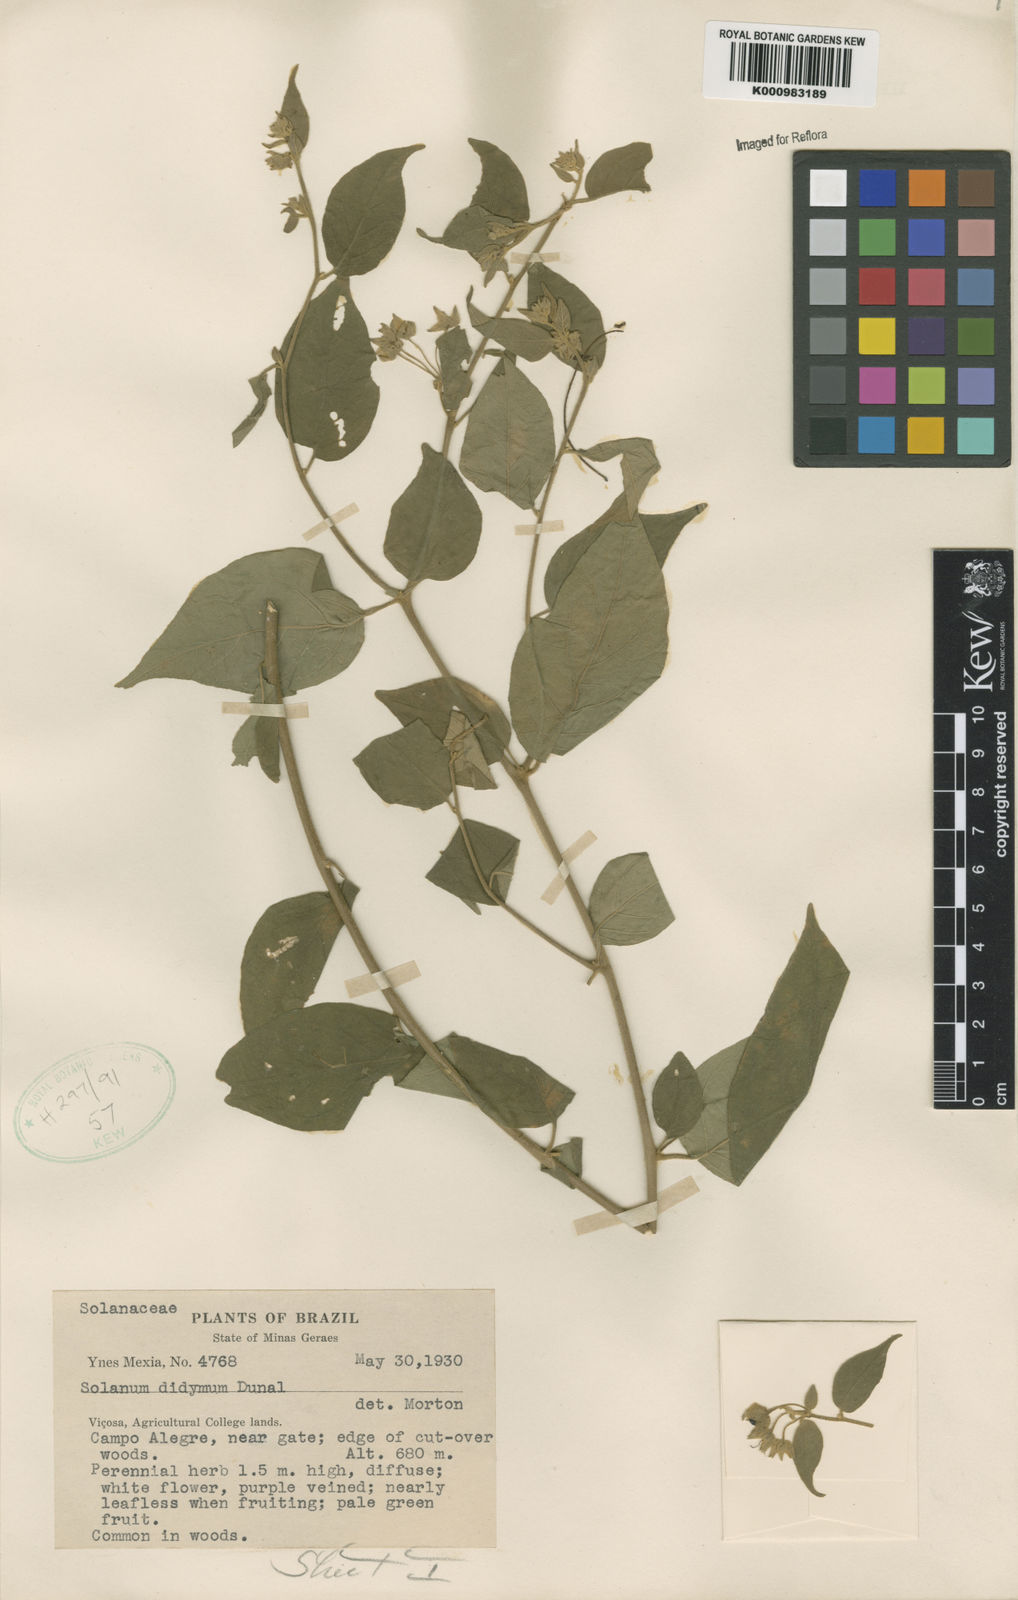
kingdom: Plantae
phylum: Tracheophyta
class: Magnoliopsida
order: Solanales
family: Solanaceae
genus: Solanum
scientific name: Solanum didymum
